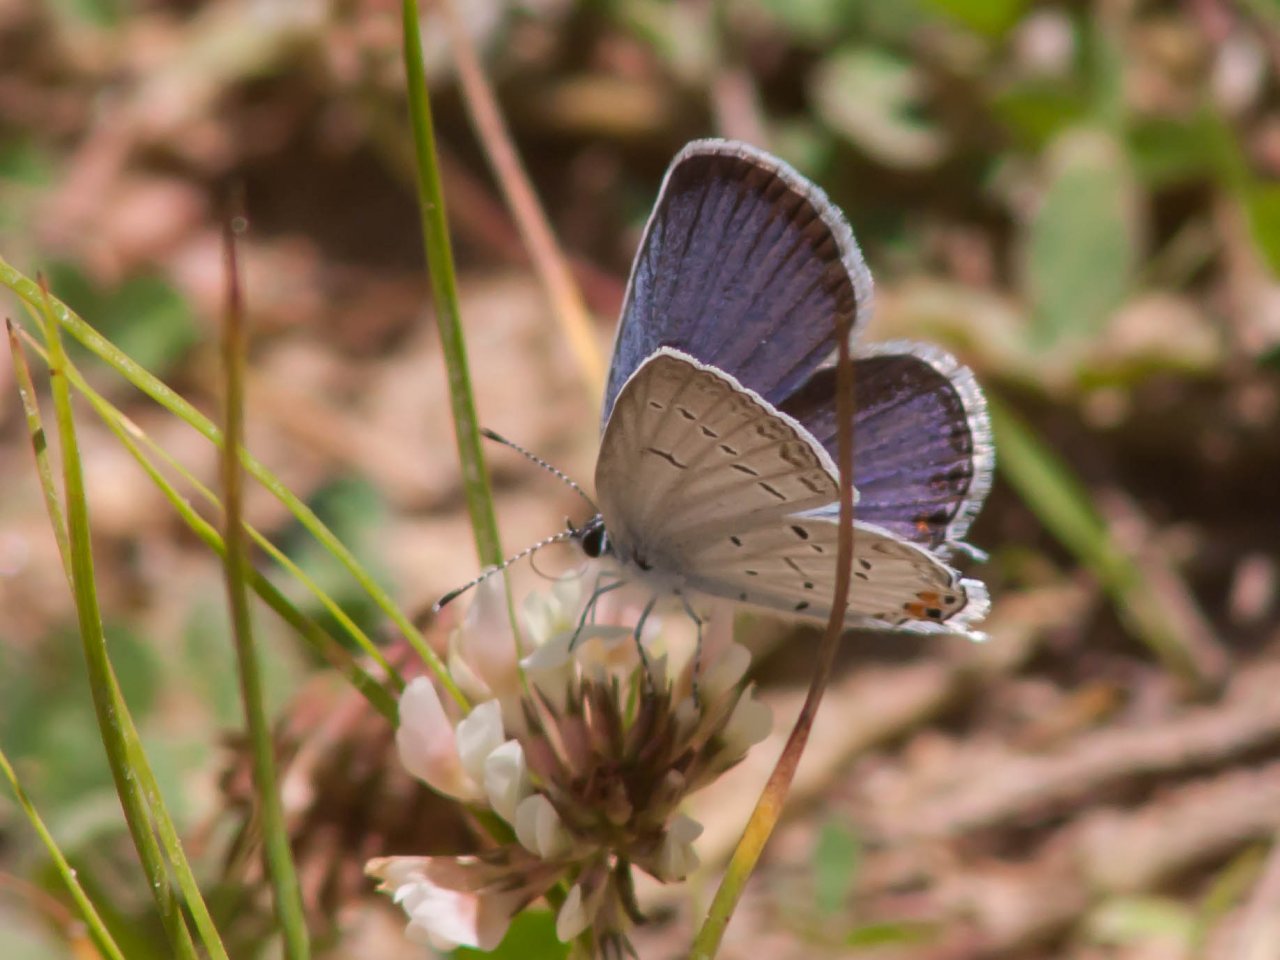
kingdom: Animalia
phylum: Arthropoda
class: Insecta
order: Lepidoptera
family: Lycaenidae
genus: Elkalyce
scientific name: Elkalyce comyntas
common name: Eastern Tailed-Blue
